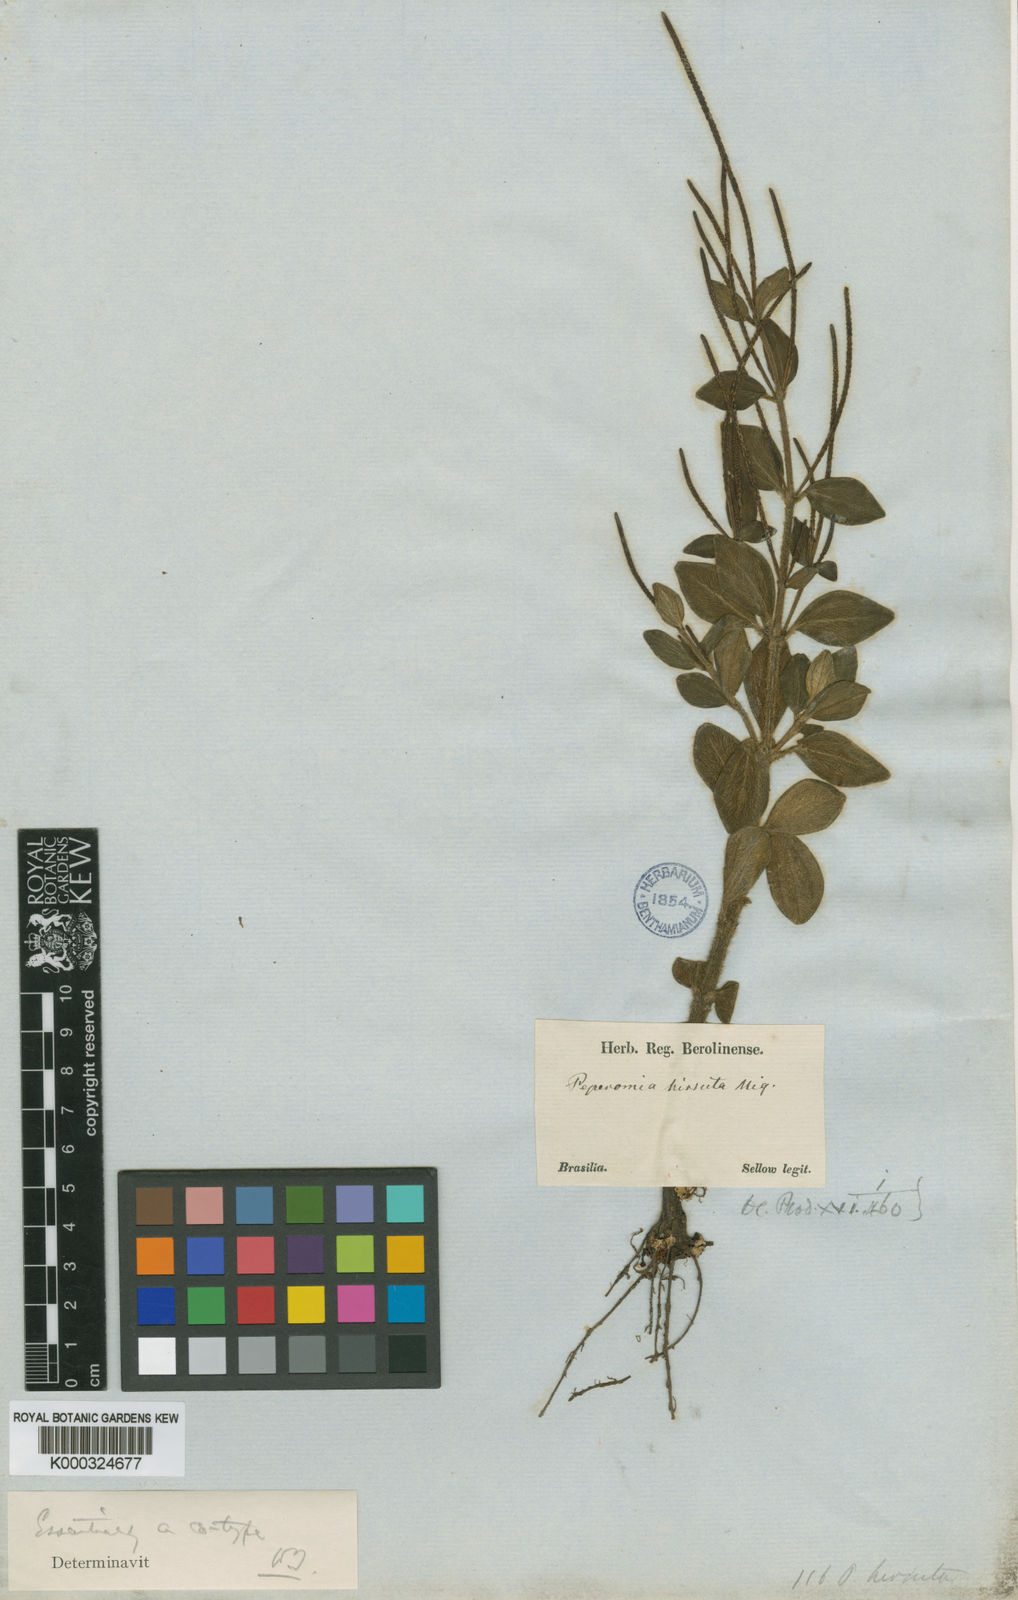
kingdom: Plantae
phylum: Tracheophyta
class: Magnoliopsida
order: Piperales
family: Piperaceae
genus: Peperomia
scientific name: Peperomia blanda
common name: Arid-land peperomia
